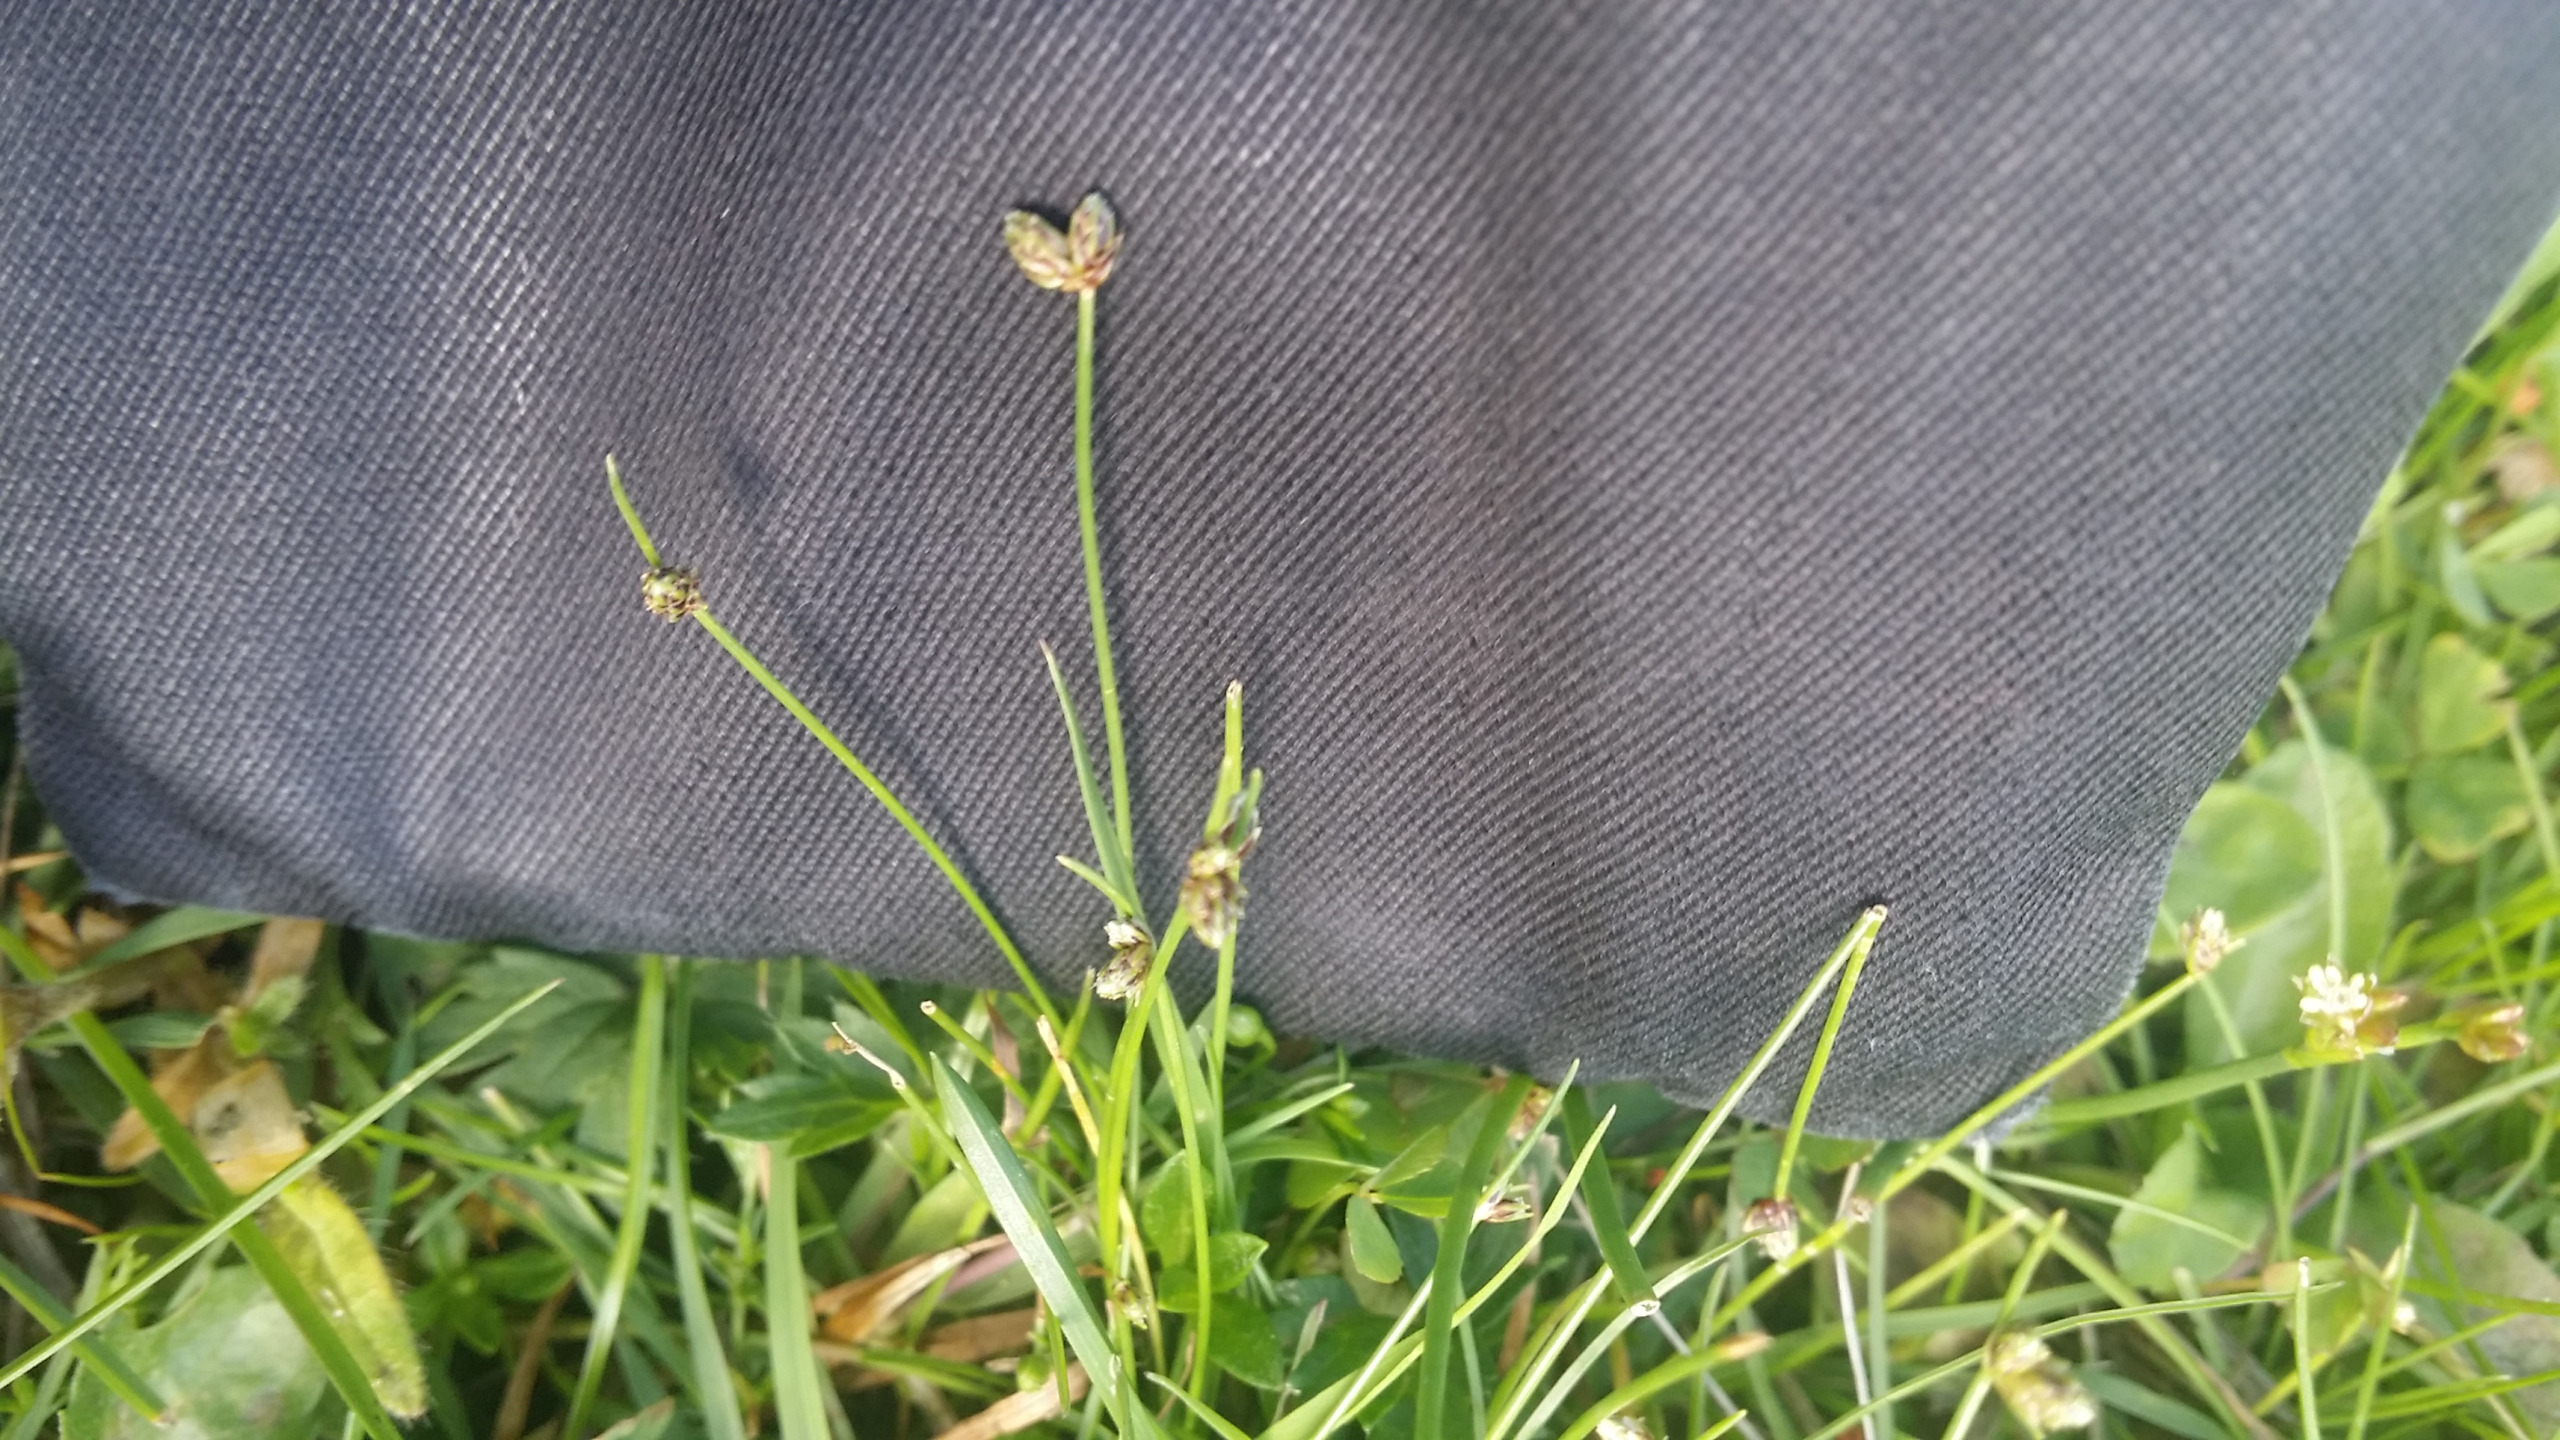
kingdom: Plantae
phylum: Tracheophyta
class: Liliopsida
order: Poales
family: Cyperaceae
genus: Isolepis
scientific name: Isolepis setacea
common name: Børste-kogleaks
